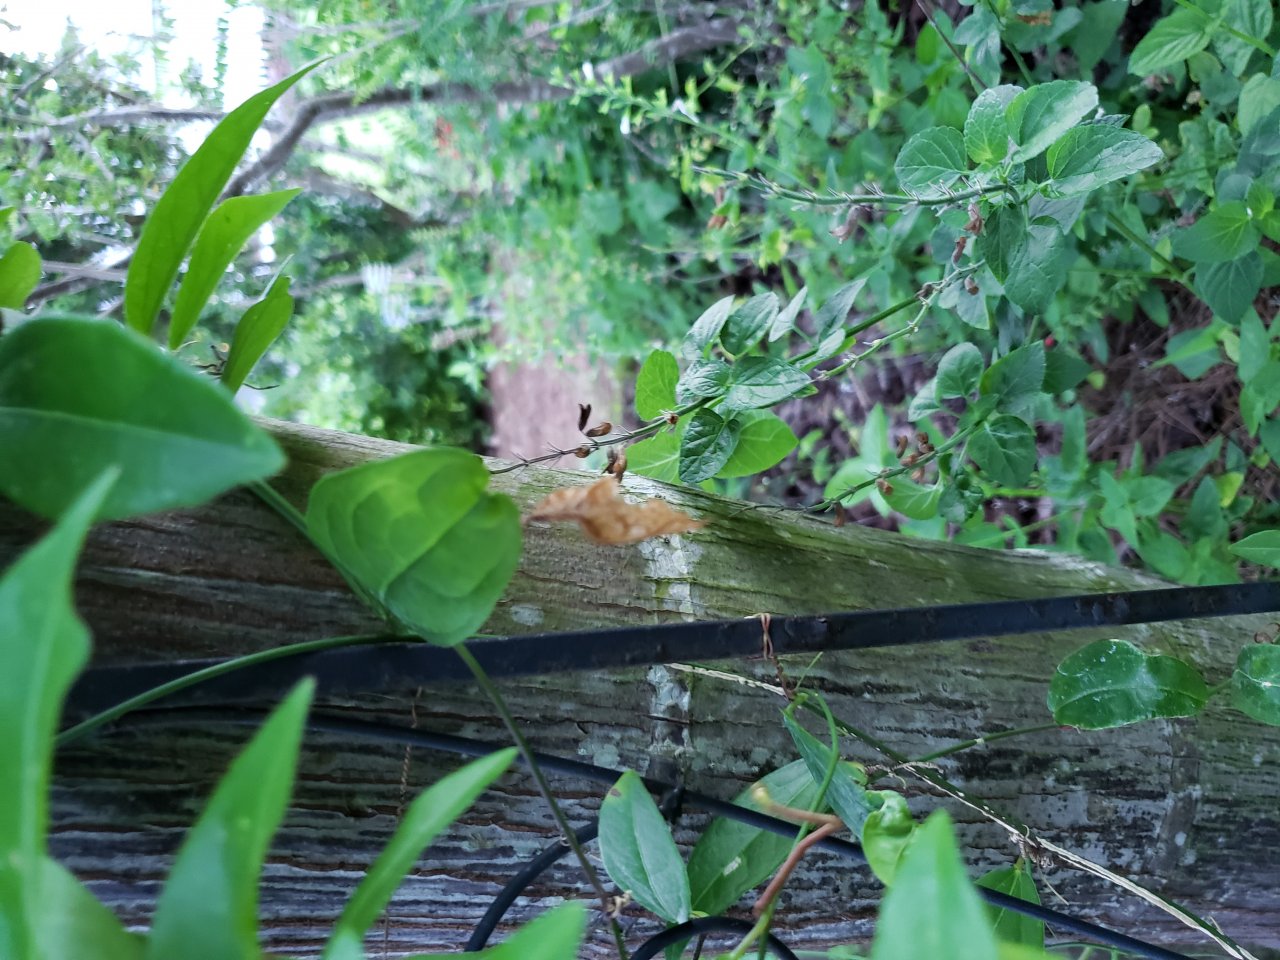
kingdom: Animalia
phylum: Arthropoda
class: Insecta
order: Lepidoptera
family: Nymphalidae
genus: Dione
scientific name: Dione vanillae
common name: Gulf Fritillary
